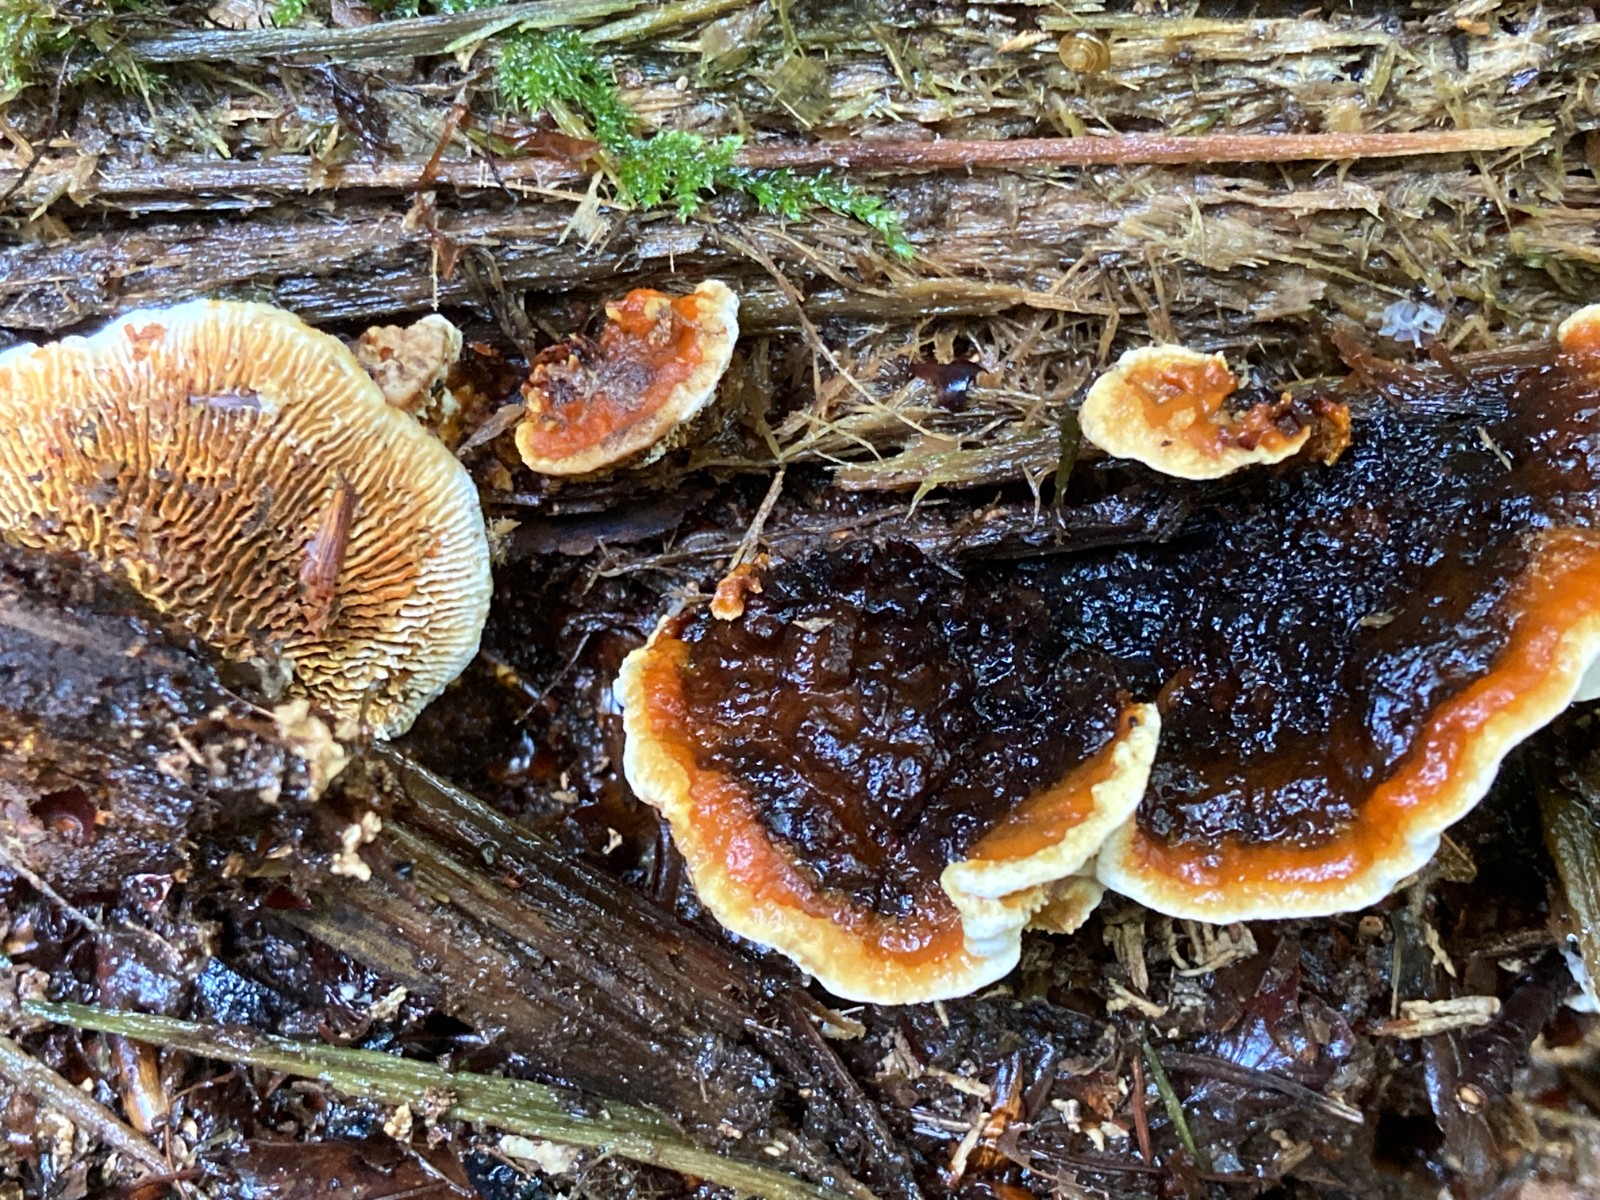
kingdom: Fungi
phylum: Basidiomycota
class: Agaricomycetes
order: Gloeophyllales
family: Gloeophyllaceae
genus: Gloeophyllum
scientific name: Gloeophyllum sepiarium
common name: fyrre-korkhat
